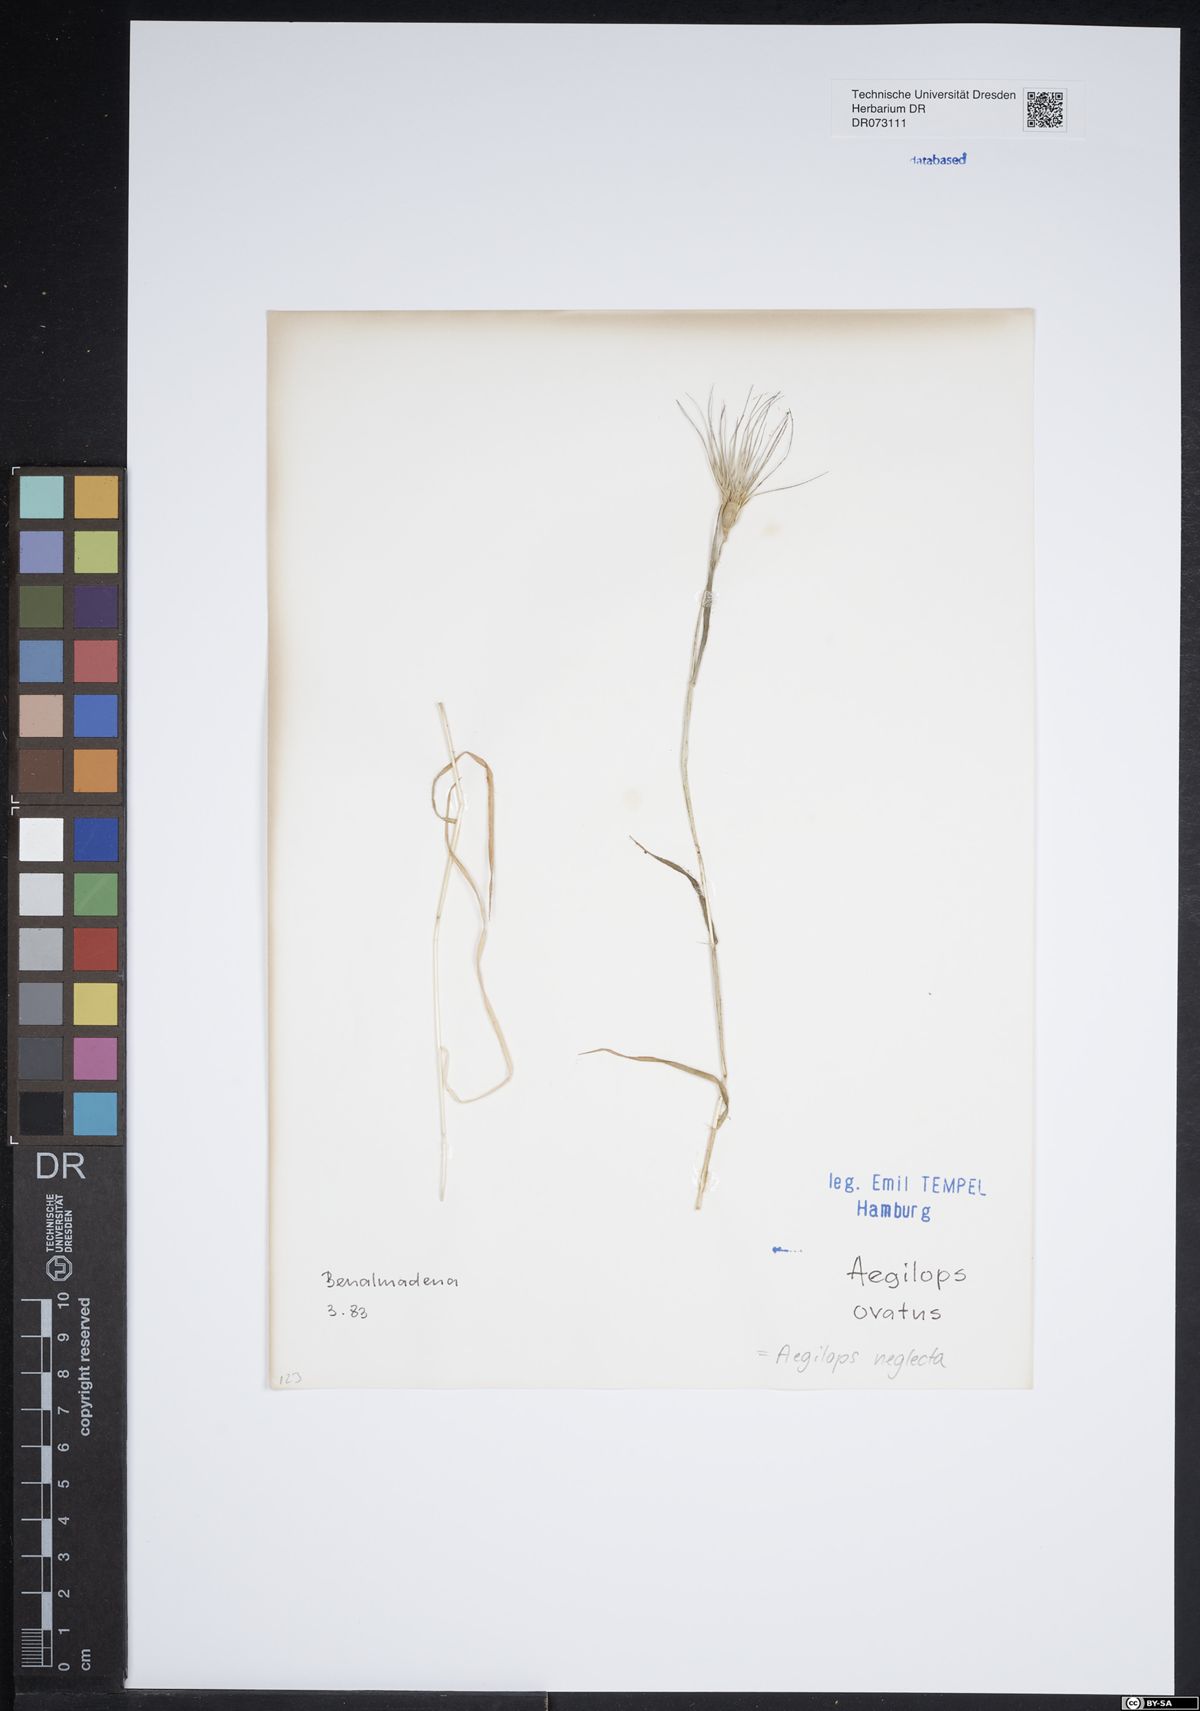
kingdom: Plantae
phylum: Tracheophyta
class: Liliopsida
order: Poales
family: Poaceae
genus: Aegilops
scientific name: Aegilops neglecta
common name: Three-awn goat grass
